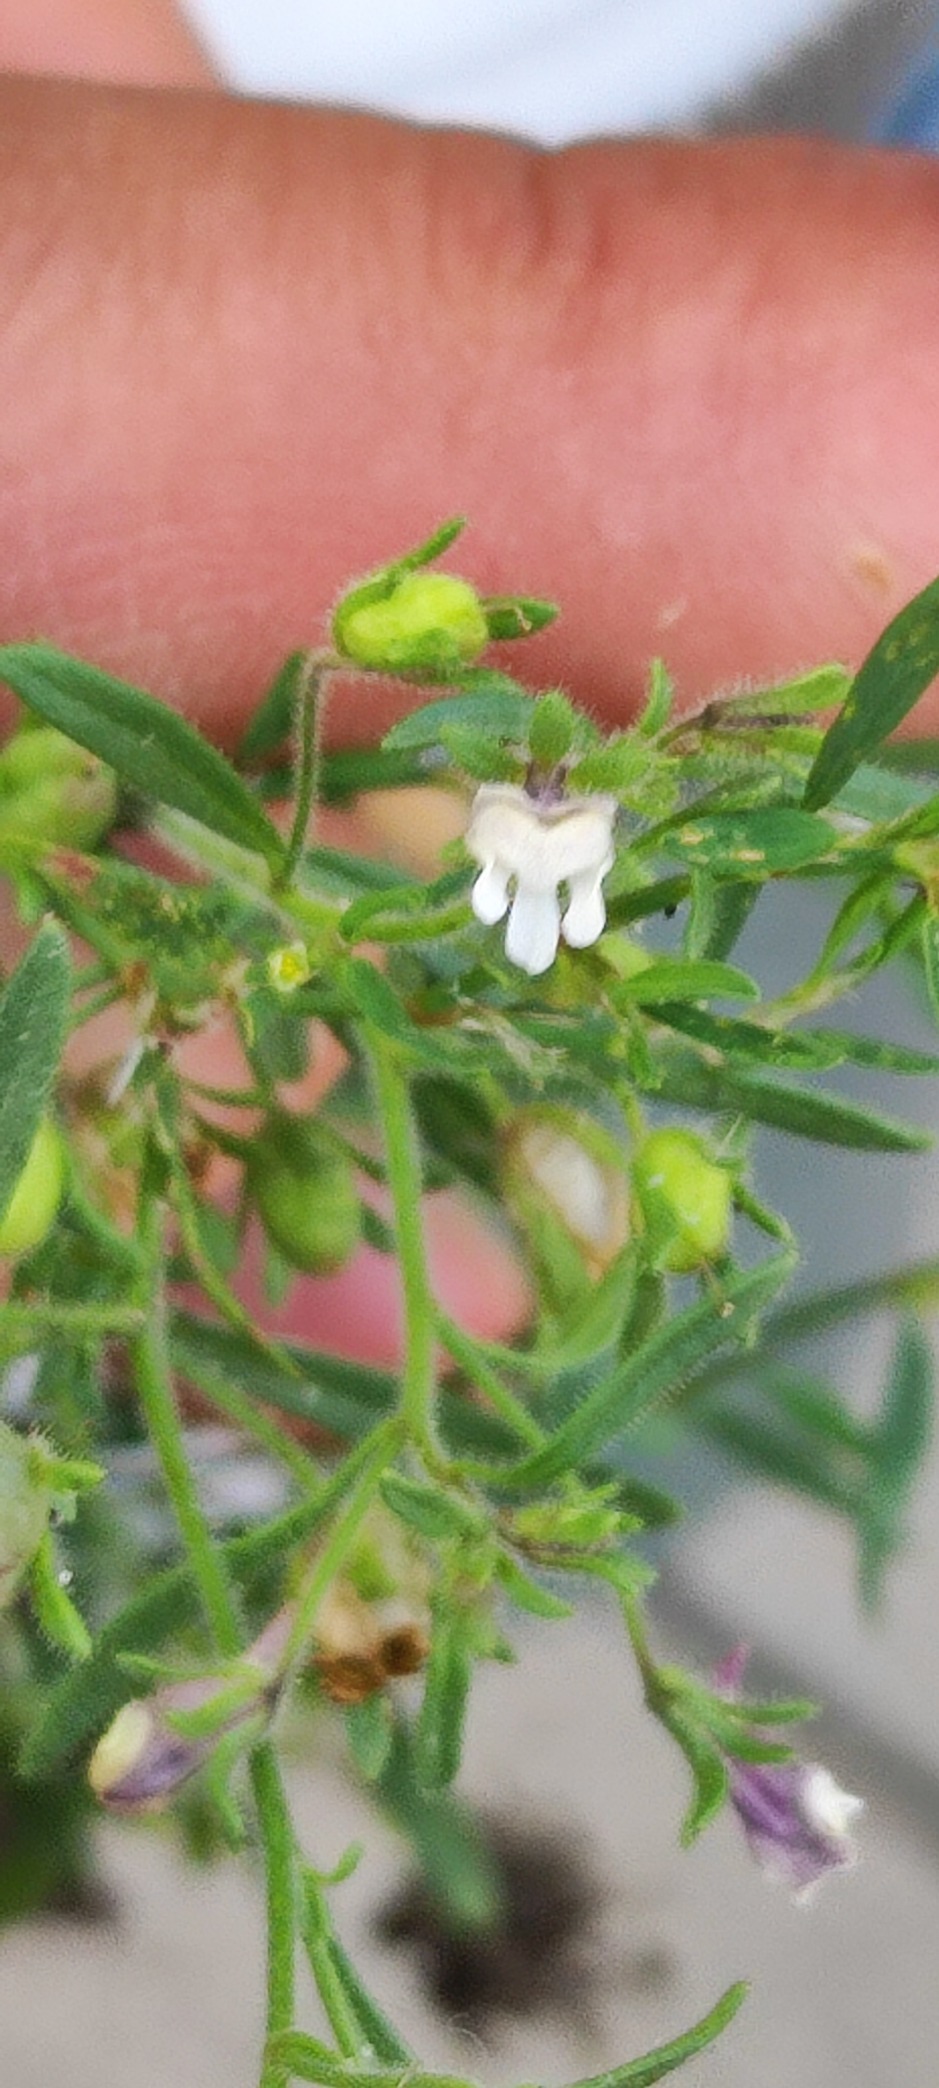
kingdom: Plantae
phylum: Tracheophyta
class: Magnoliopsida
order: Lamiales
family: Plantaginaceae
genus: Chaenorhinum
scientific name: Chaenorhinum minus
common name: Liden torskemund
